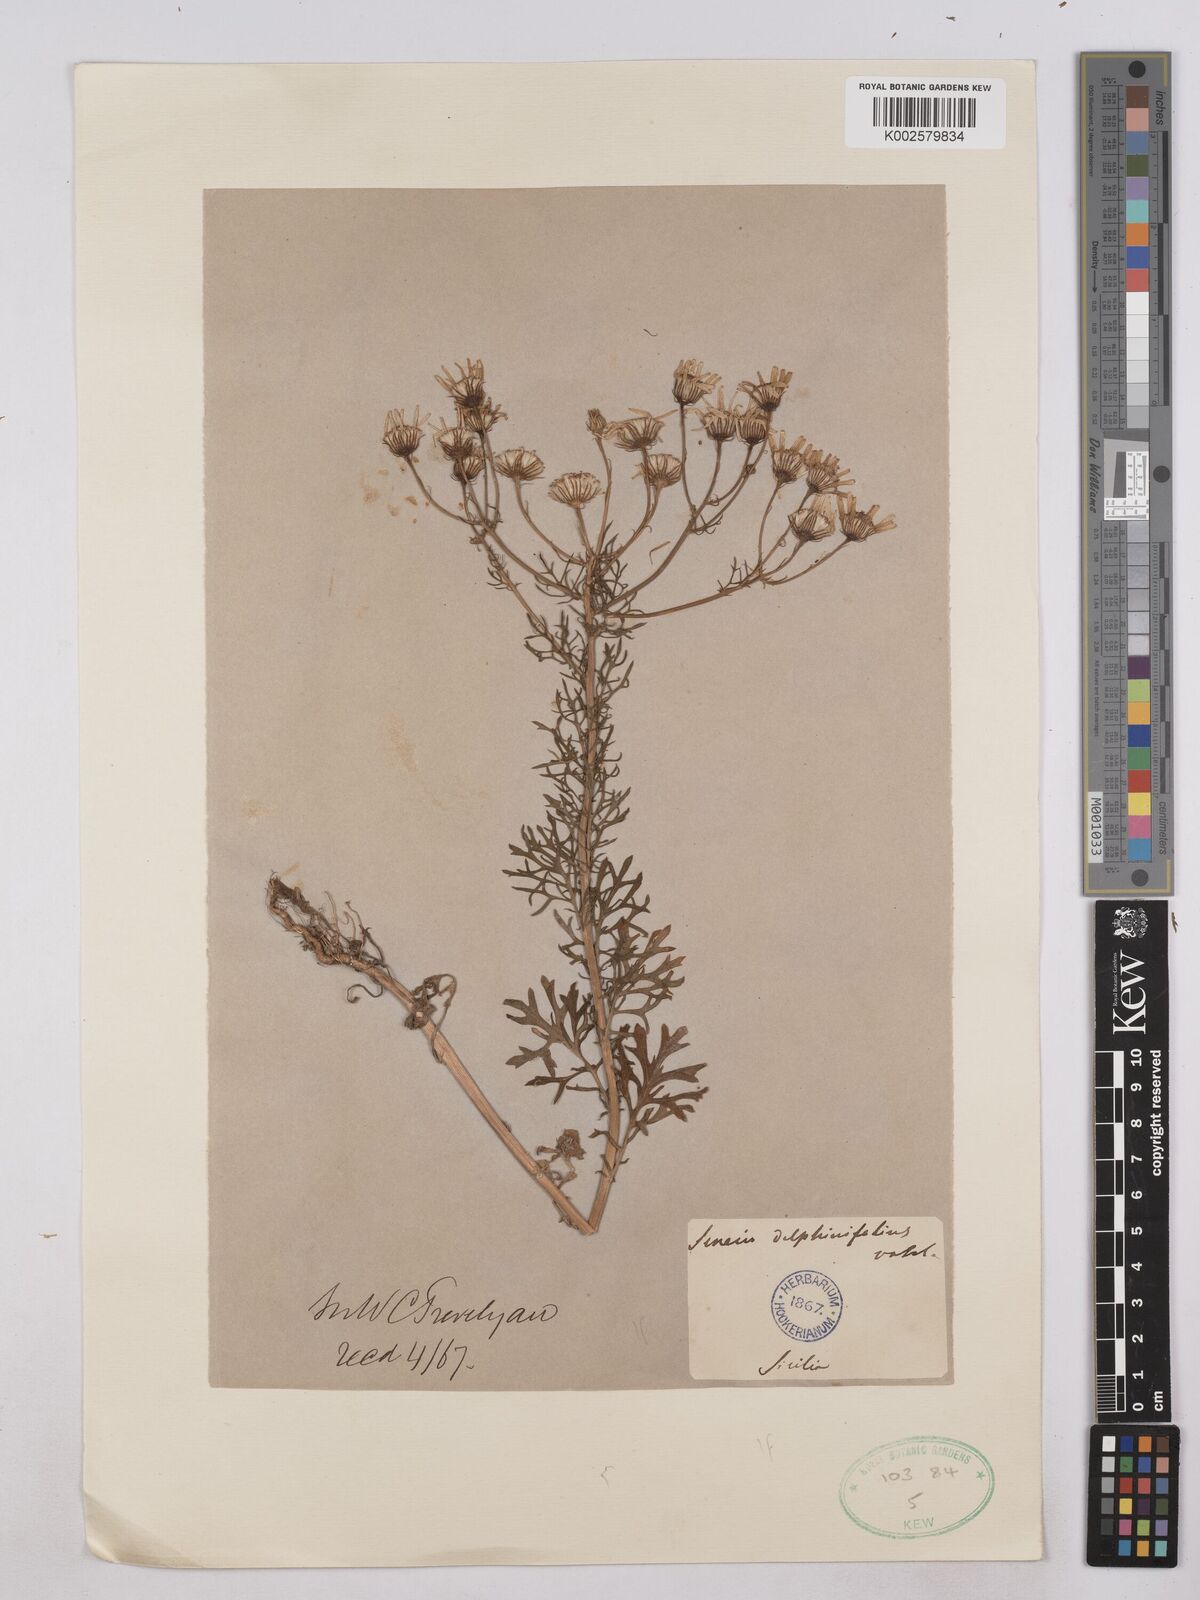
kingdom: Plantae
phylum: Tracheophyta
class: Magnoliopsida
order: Asterales
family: Asteraceae
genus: Jacobaea
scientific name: Jacobaea erucifolia
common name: Hoary ragwort
